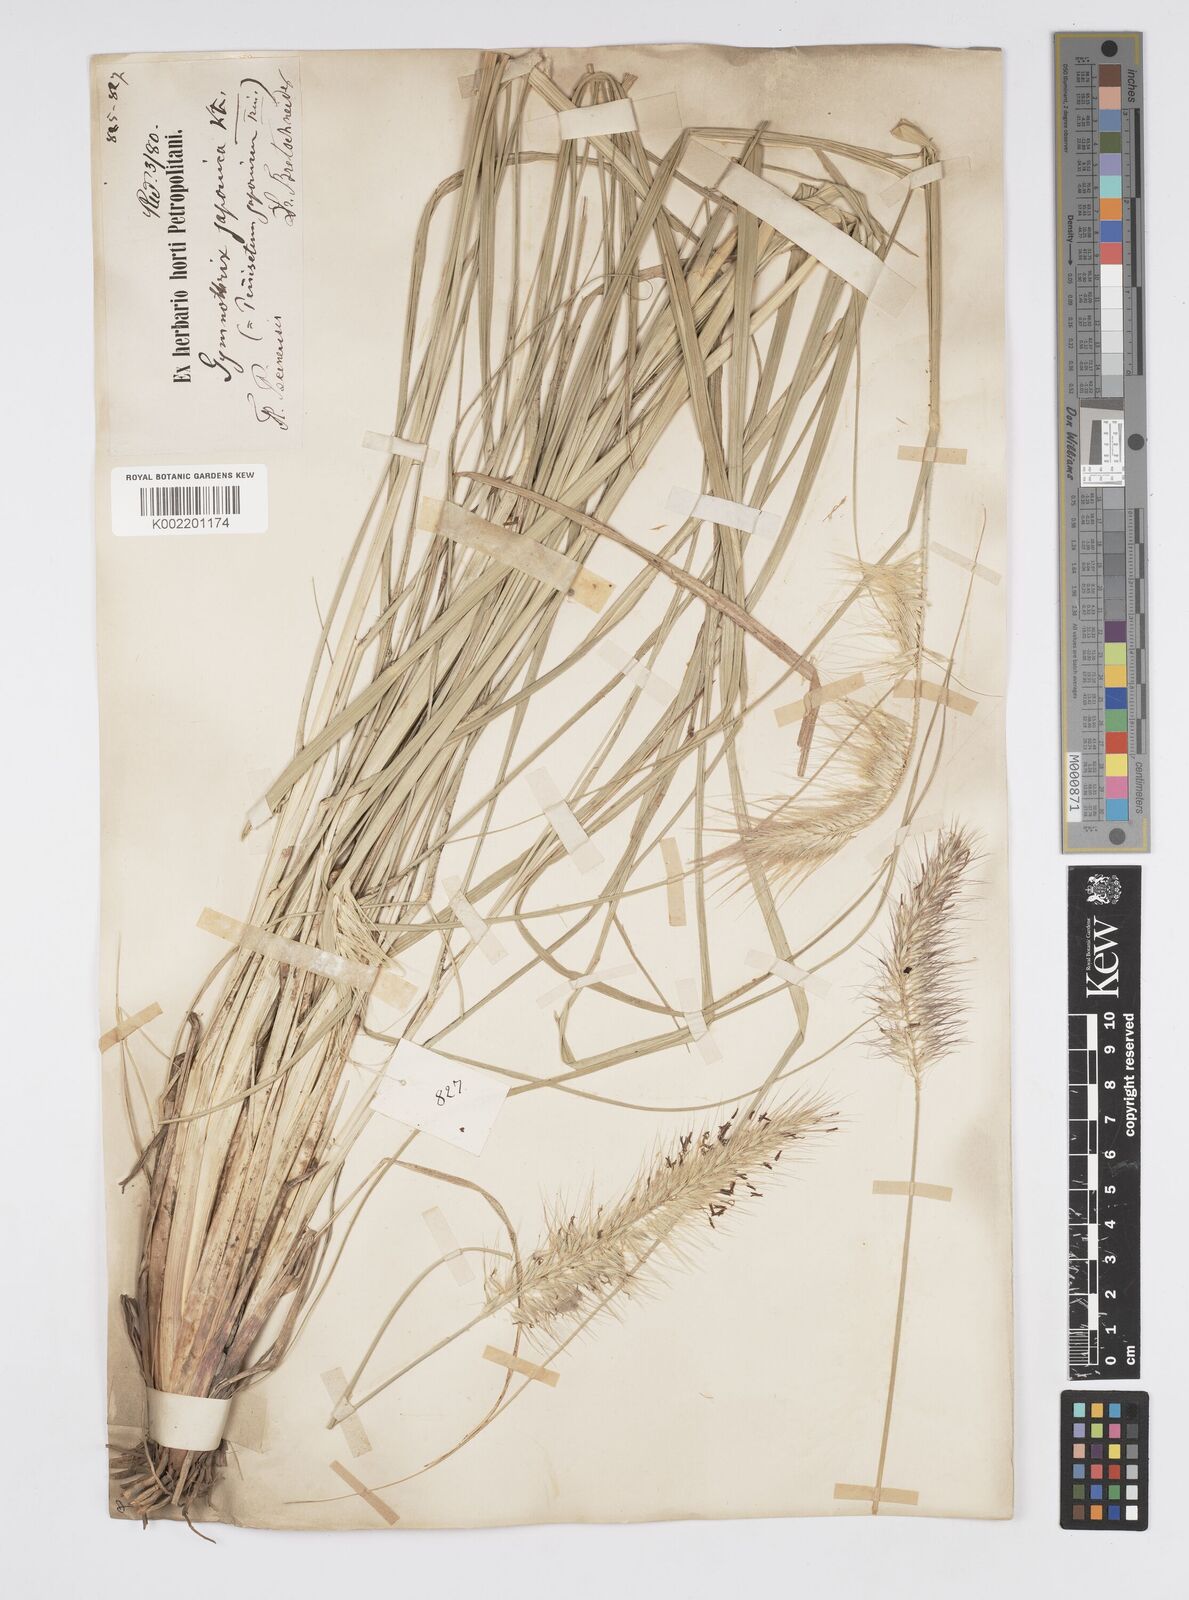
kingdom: Plantae
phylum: Tracheophyta
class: Liliopsida
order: Poales
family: Poaceae
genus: Cenchrus
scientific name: Cenchrus alopecuroides
